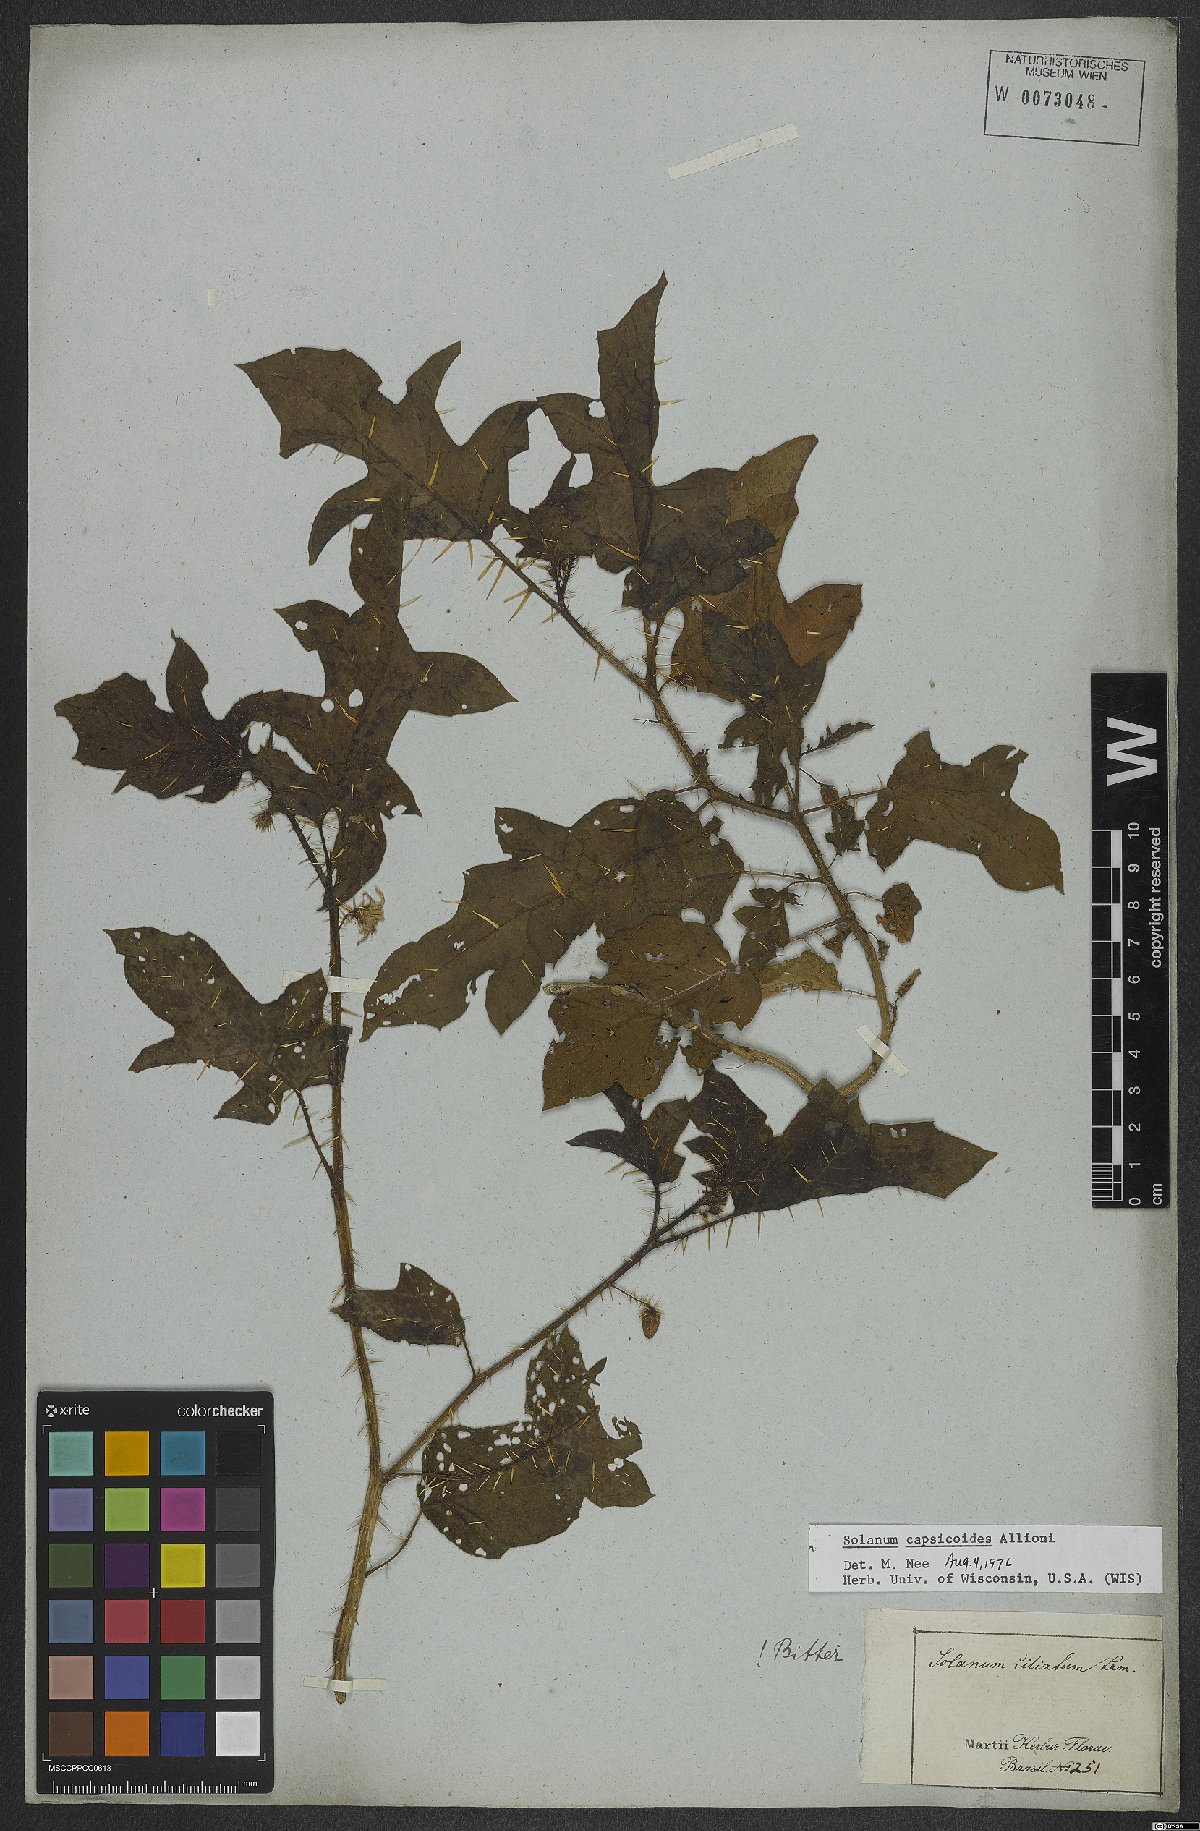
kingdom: Plantae
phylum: Tracheophyta
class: Magnoliopsida
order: Solanales
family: Solanaceae
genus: Solanum
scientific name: Solanum capsicoides
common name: Cockroach berry
